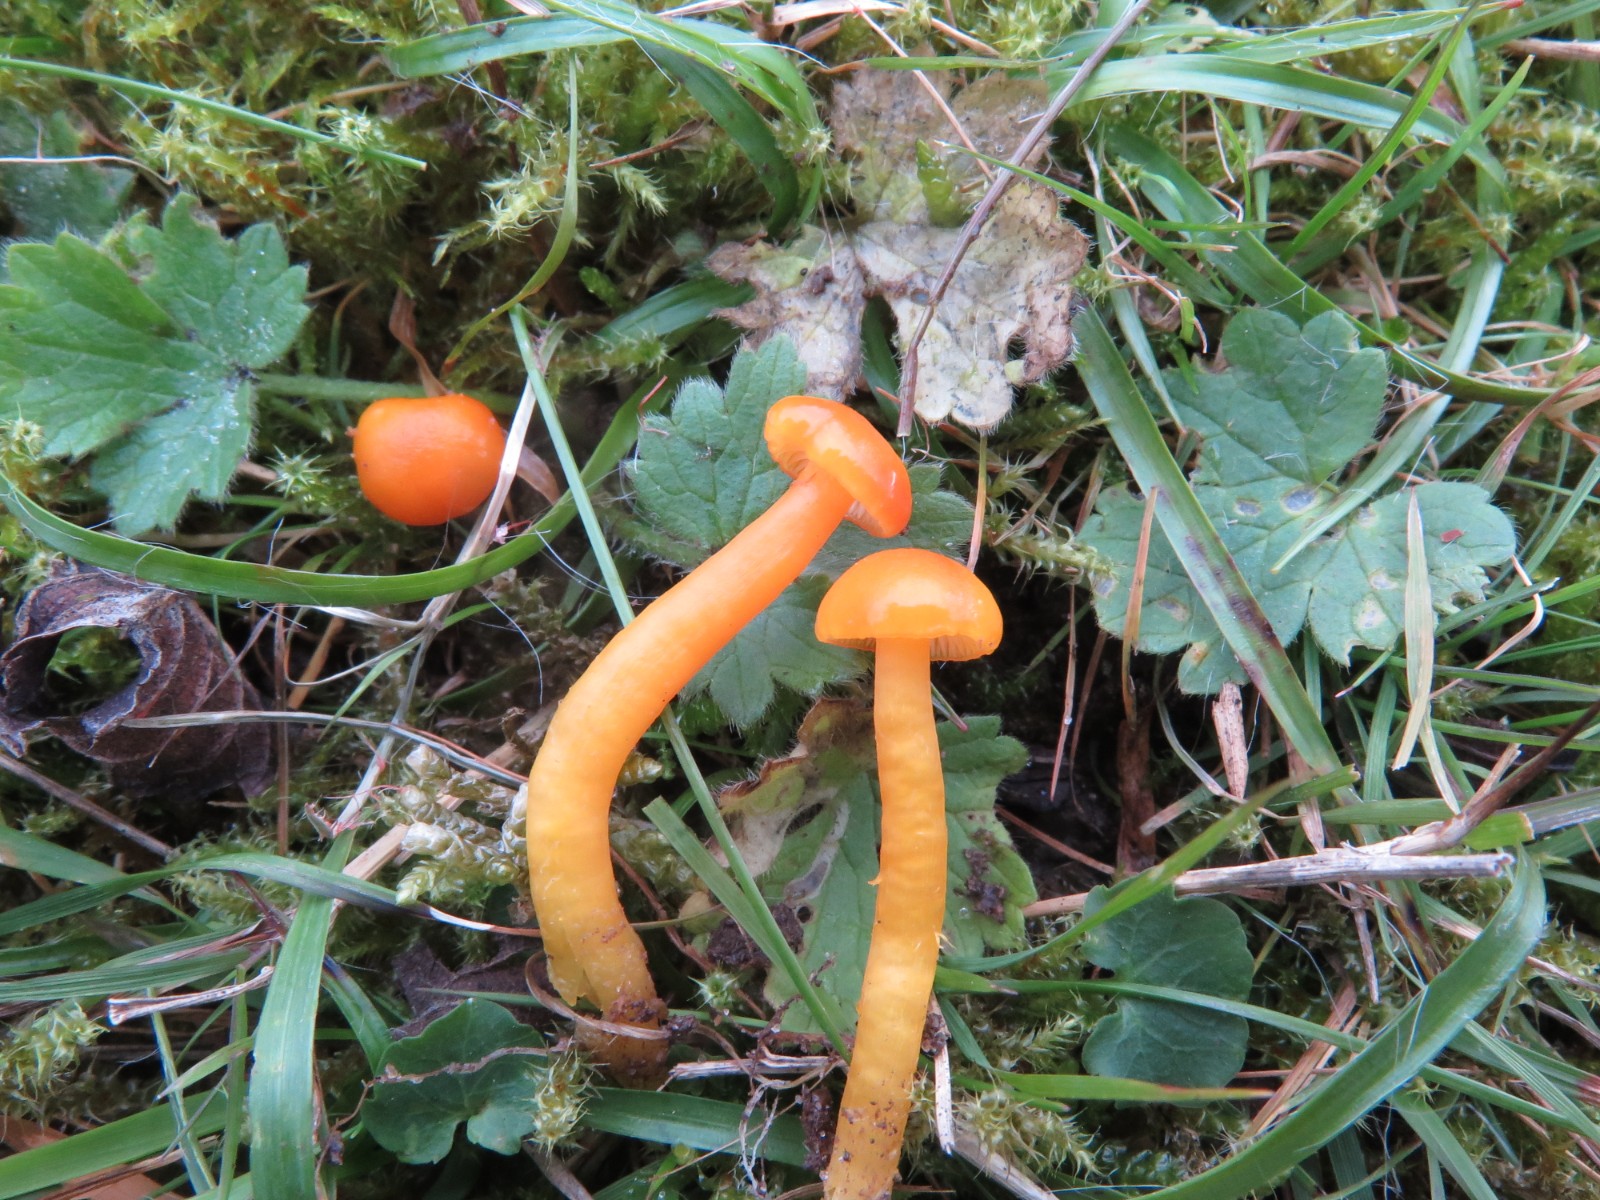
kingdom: Fungi
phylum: Basidiomycota
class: Agaricomycetes
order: Agaricales
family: Hygrophoraceae
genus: Hygrocybe
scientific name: Hygrocybe insipida
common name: liden vokshat
